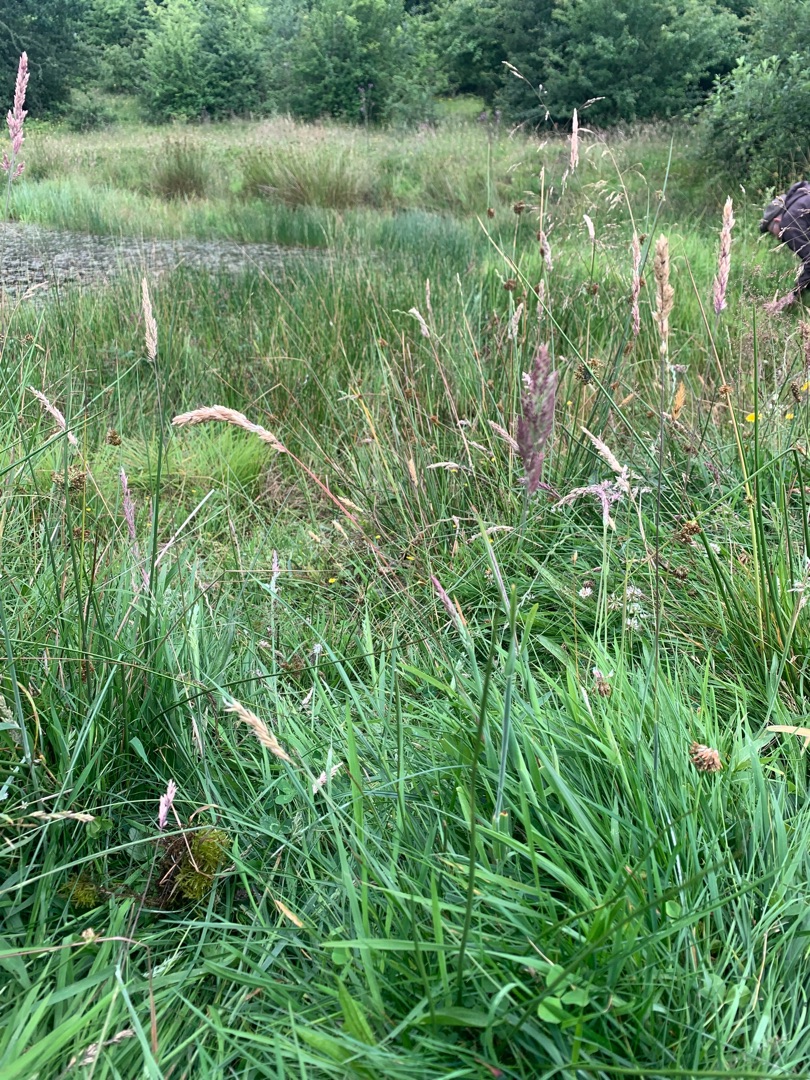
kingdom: Plantae
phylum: Tracheophyta
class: Liliopsida
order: Poales
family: Poaceae
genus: Holcus
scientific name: Holcus lanatus
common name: Fløjlsgræs
